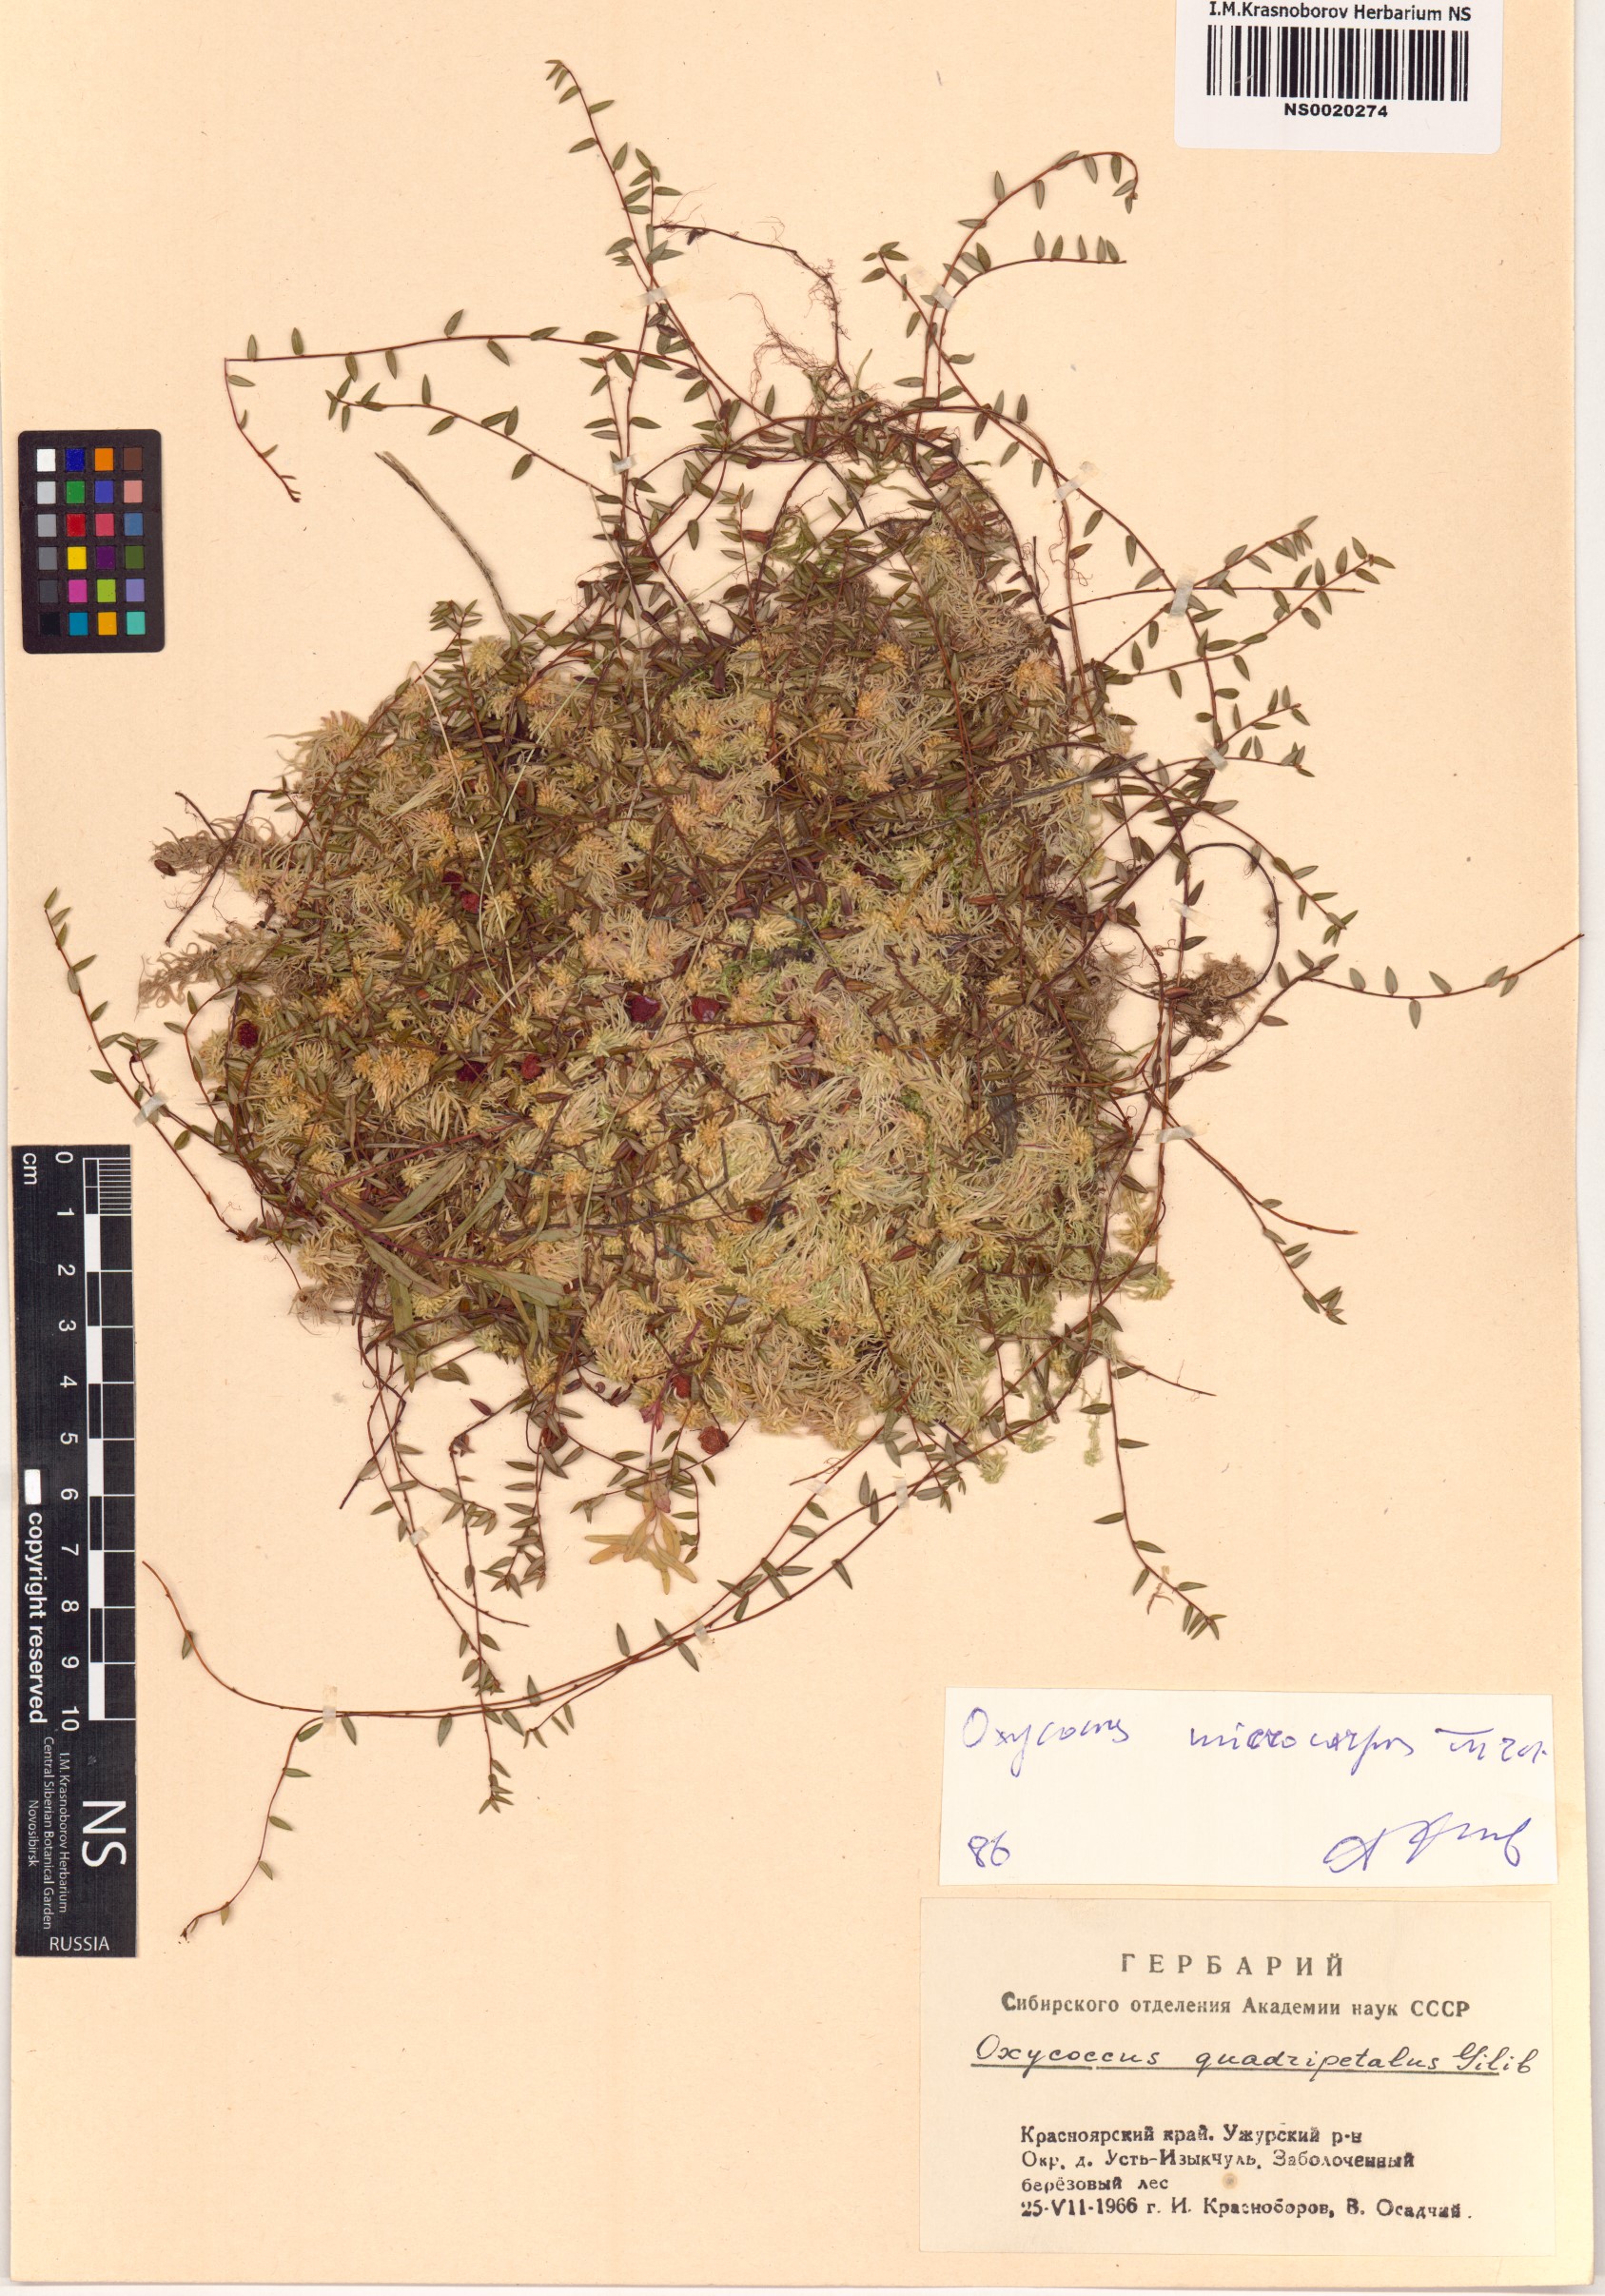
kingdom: Plantae
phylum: Tracheophyta
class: Magnoliopsida
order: Ericales
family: Ericaceae
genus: Vaccinium
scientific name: Vaccinium microcarpum
